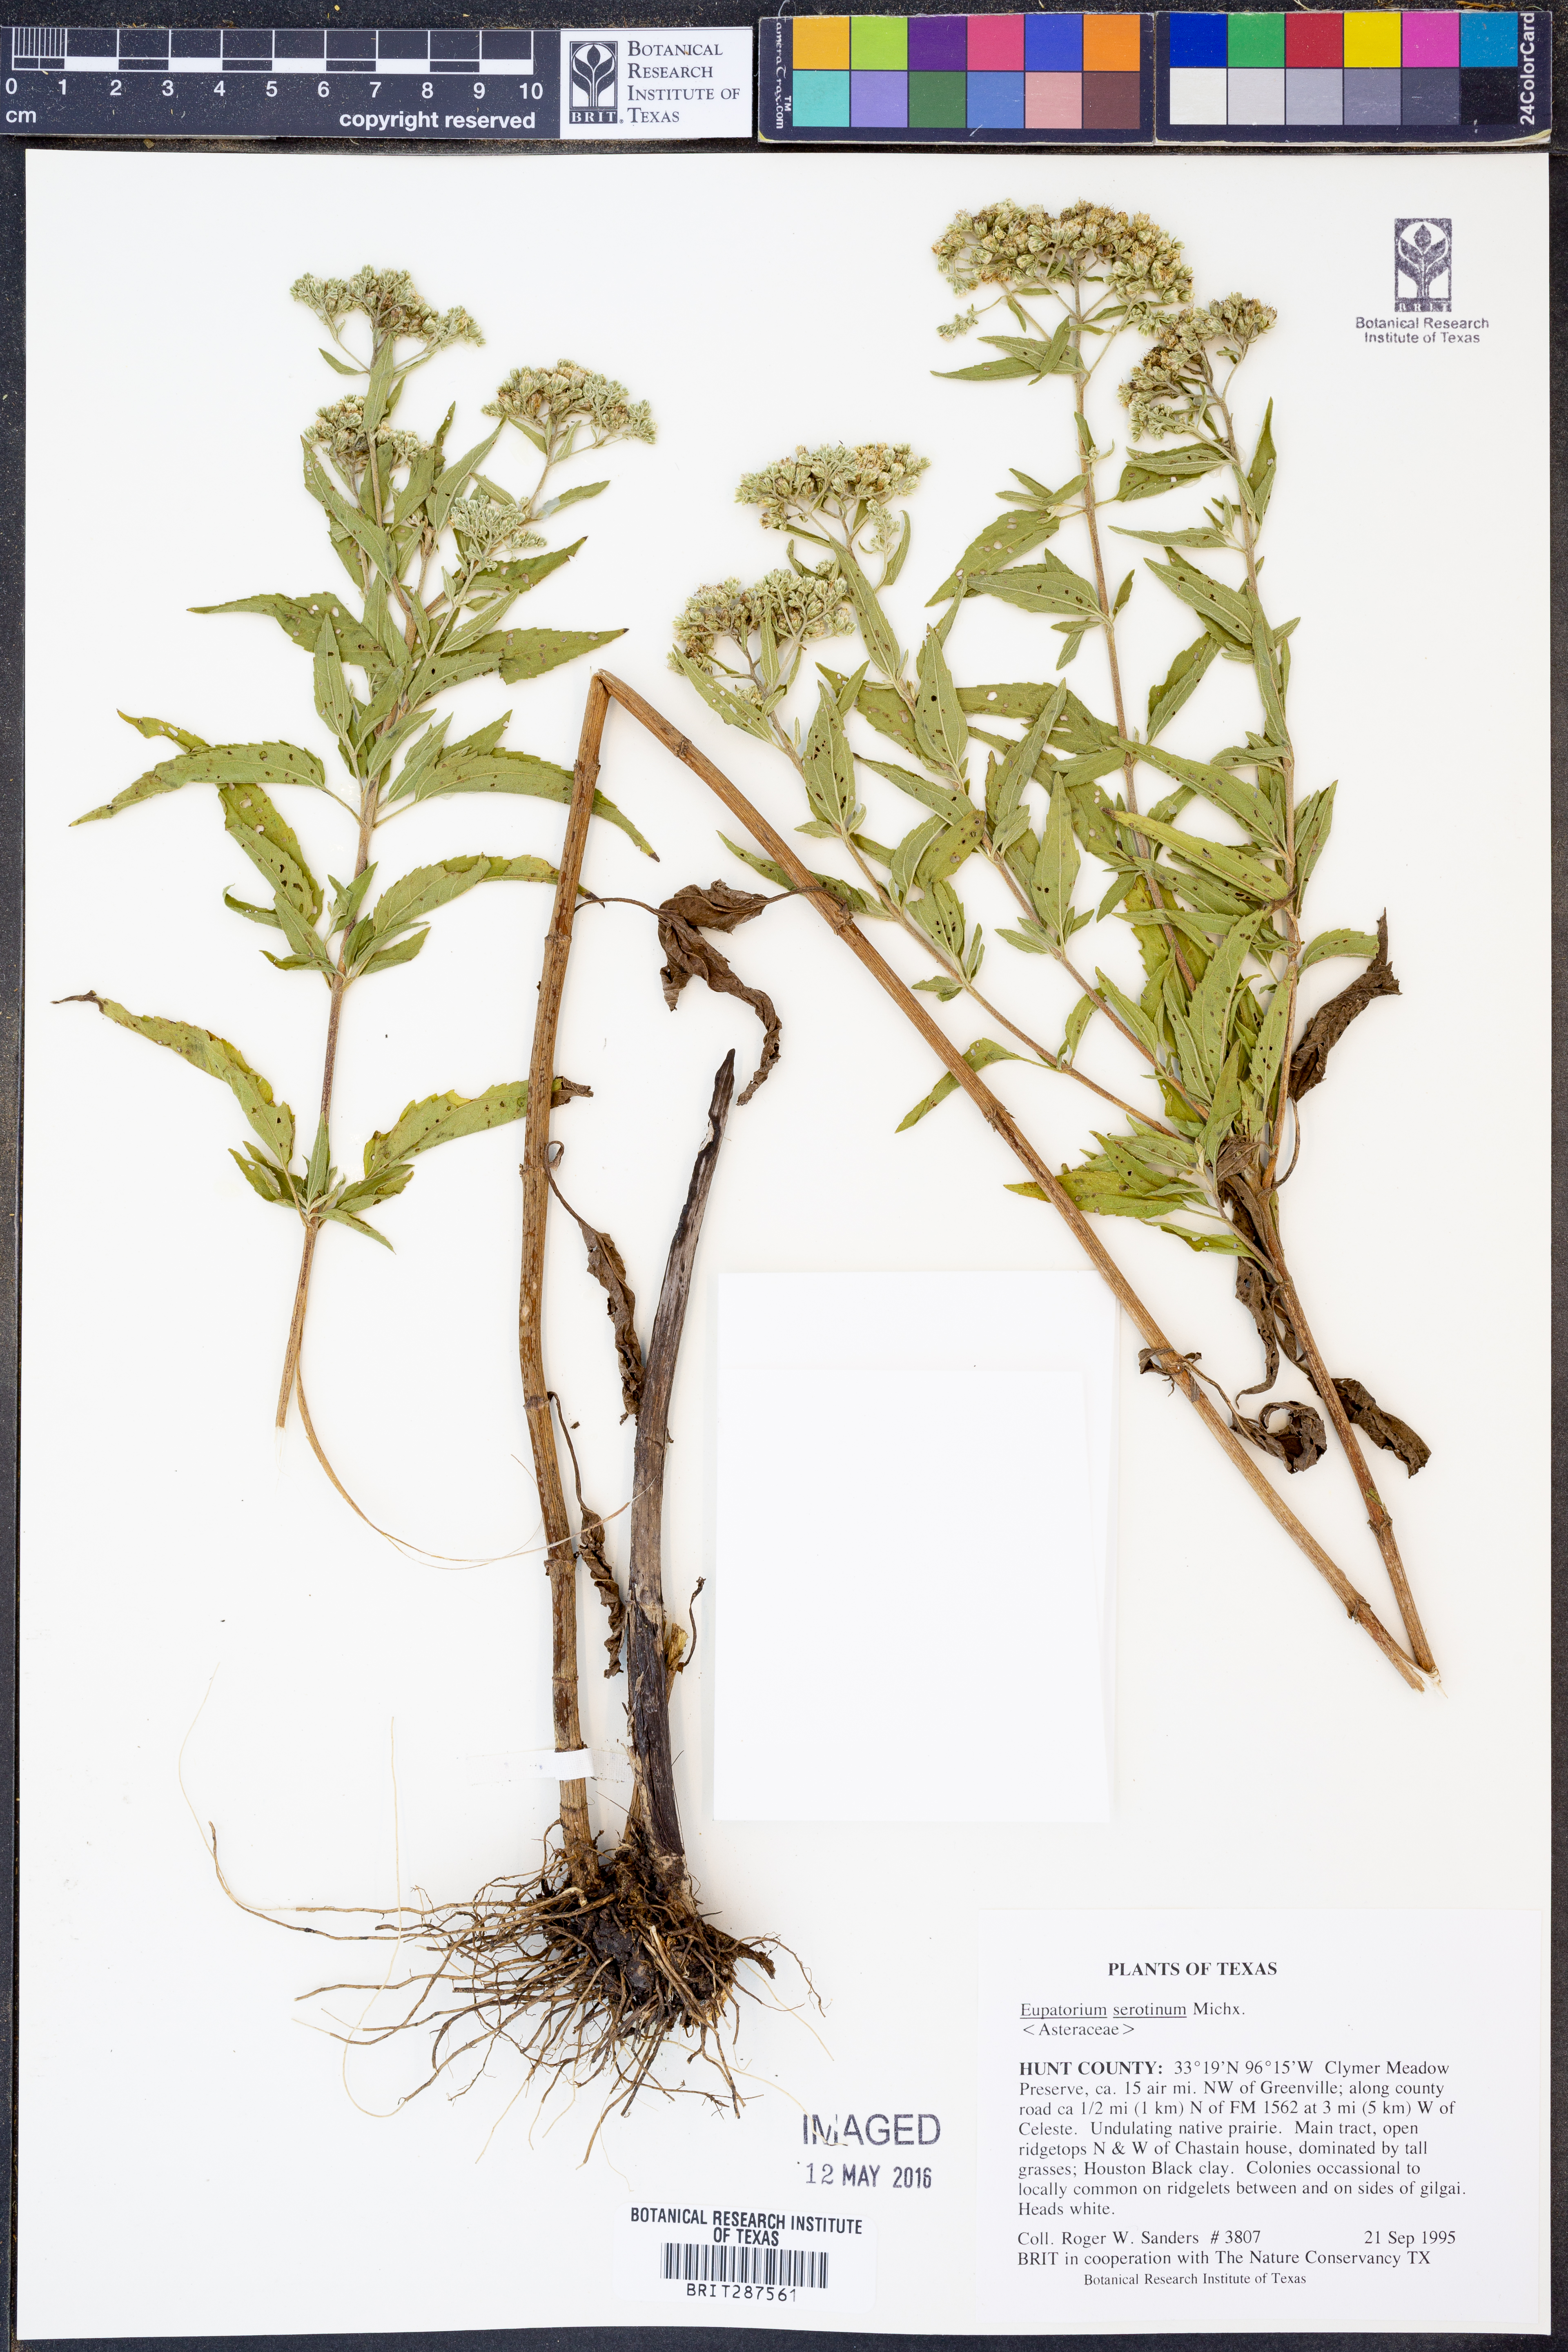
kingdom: Plantae
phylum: Tracheophyta
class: Magnoliopsida
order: Asterales
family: Asteraceae
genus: Eupatorium
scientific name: Eupatorium serotinum
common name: Late boneset
